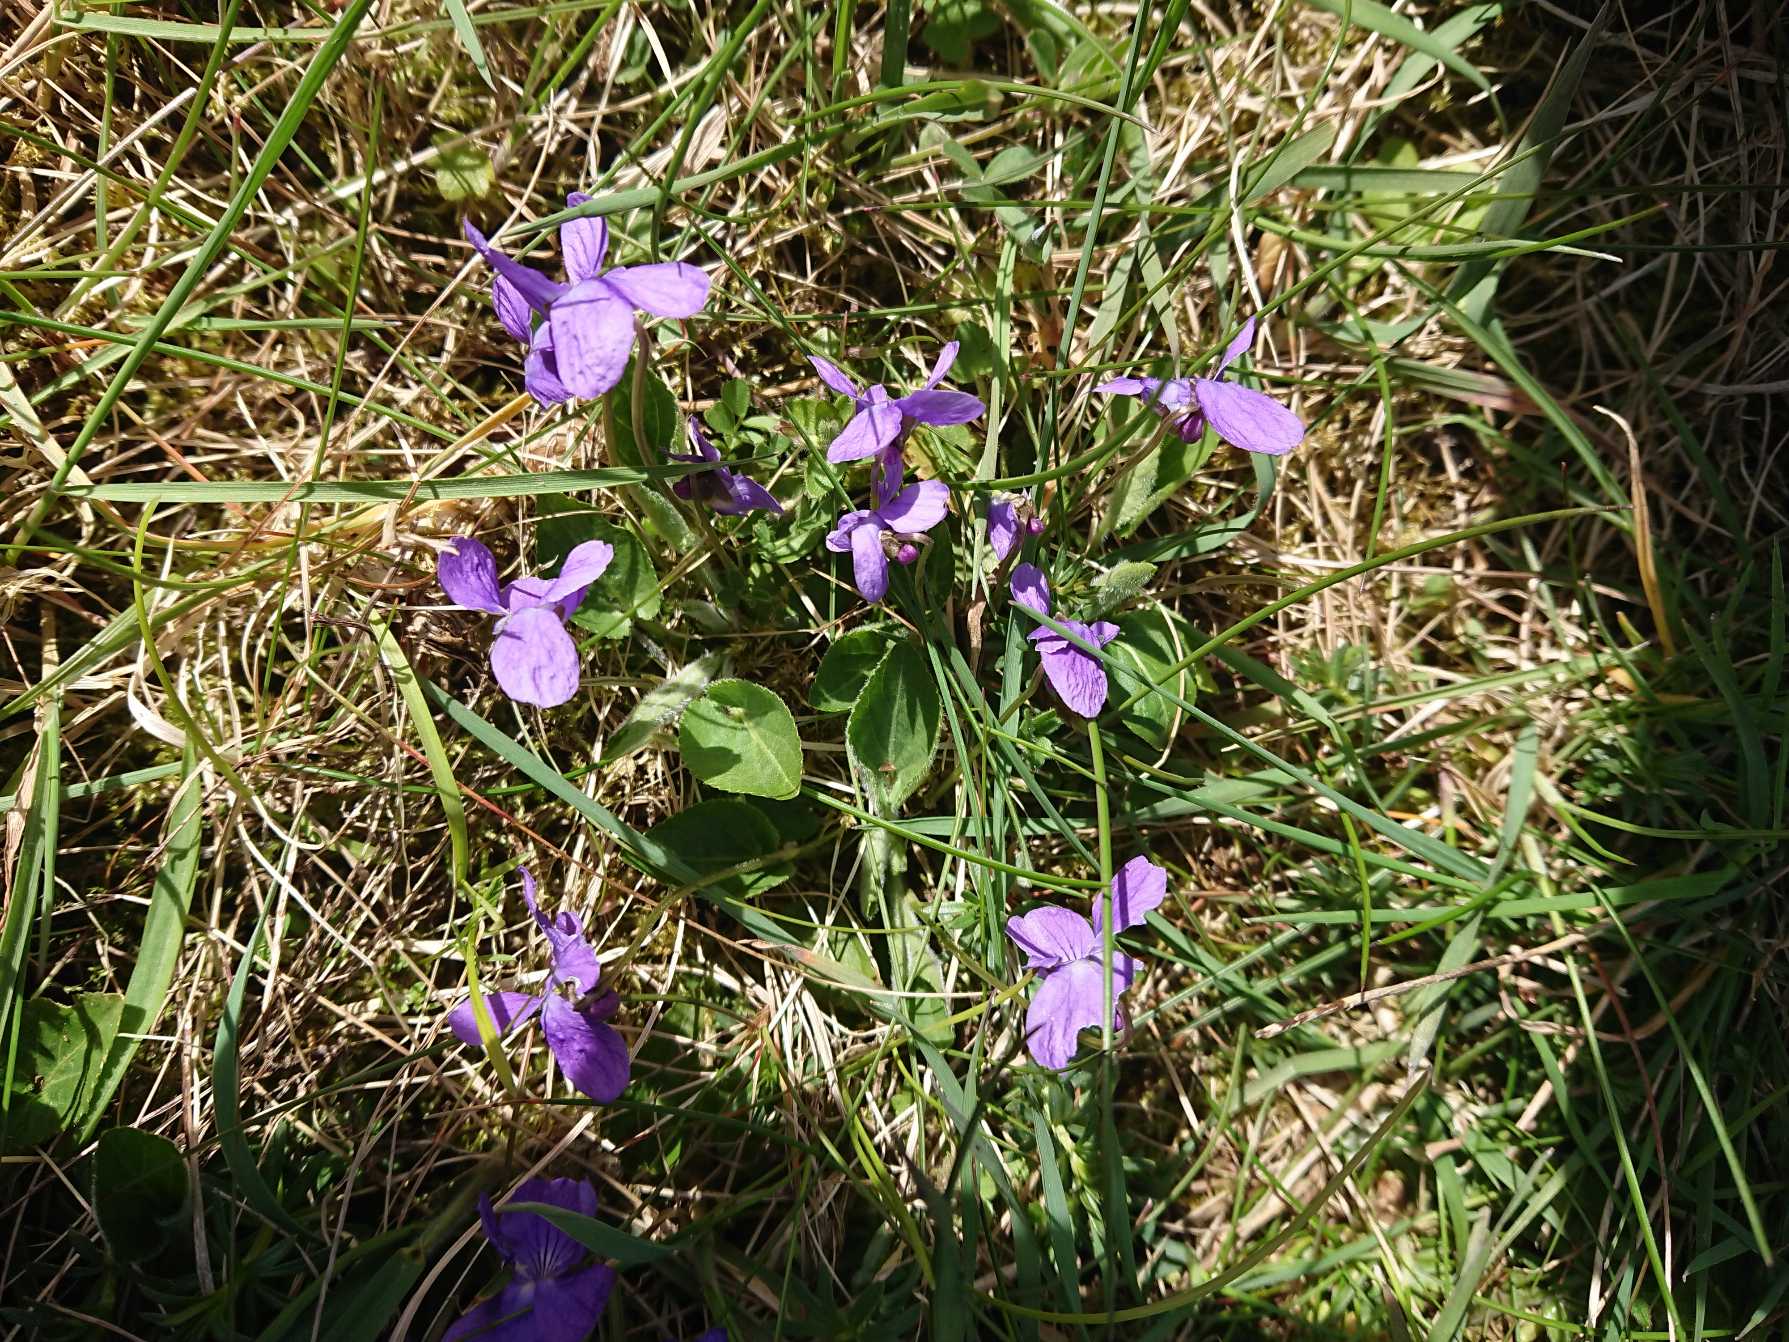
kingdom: Plantae
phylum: Tracheophyta
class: Magnoliopsida
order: Malpighiales
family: Violaceae
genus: Viola
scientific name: Viola hirta
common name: Håret viol
